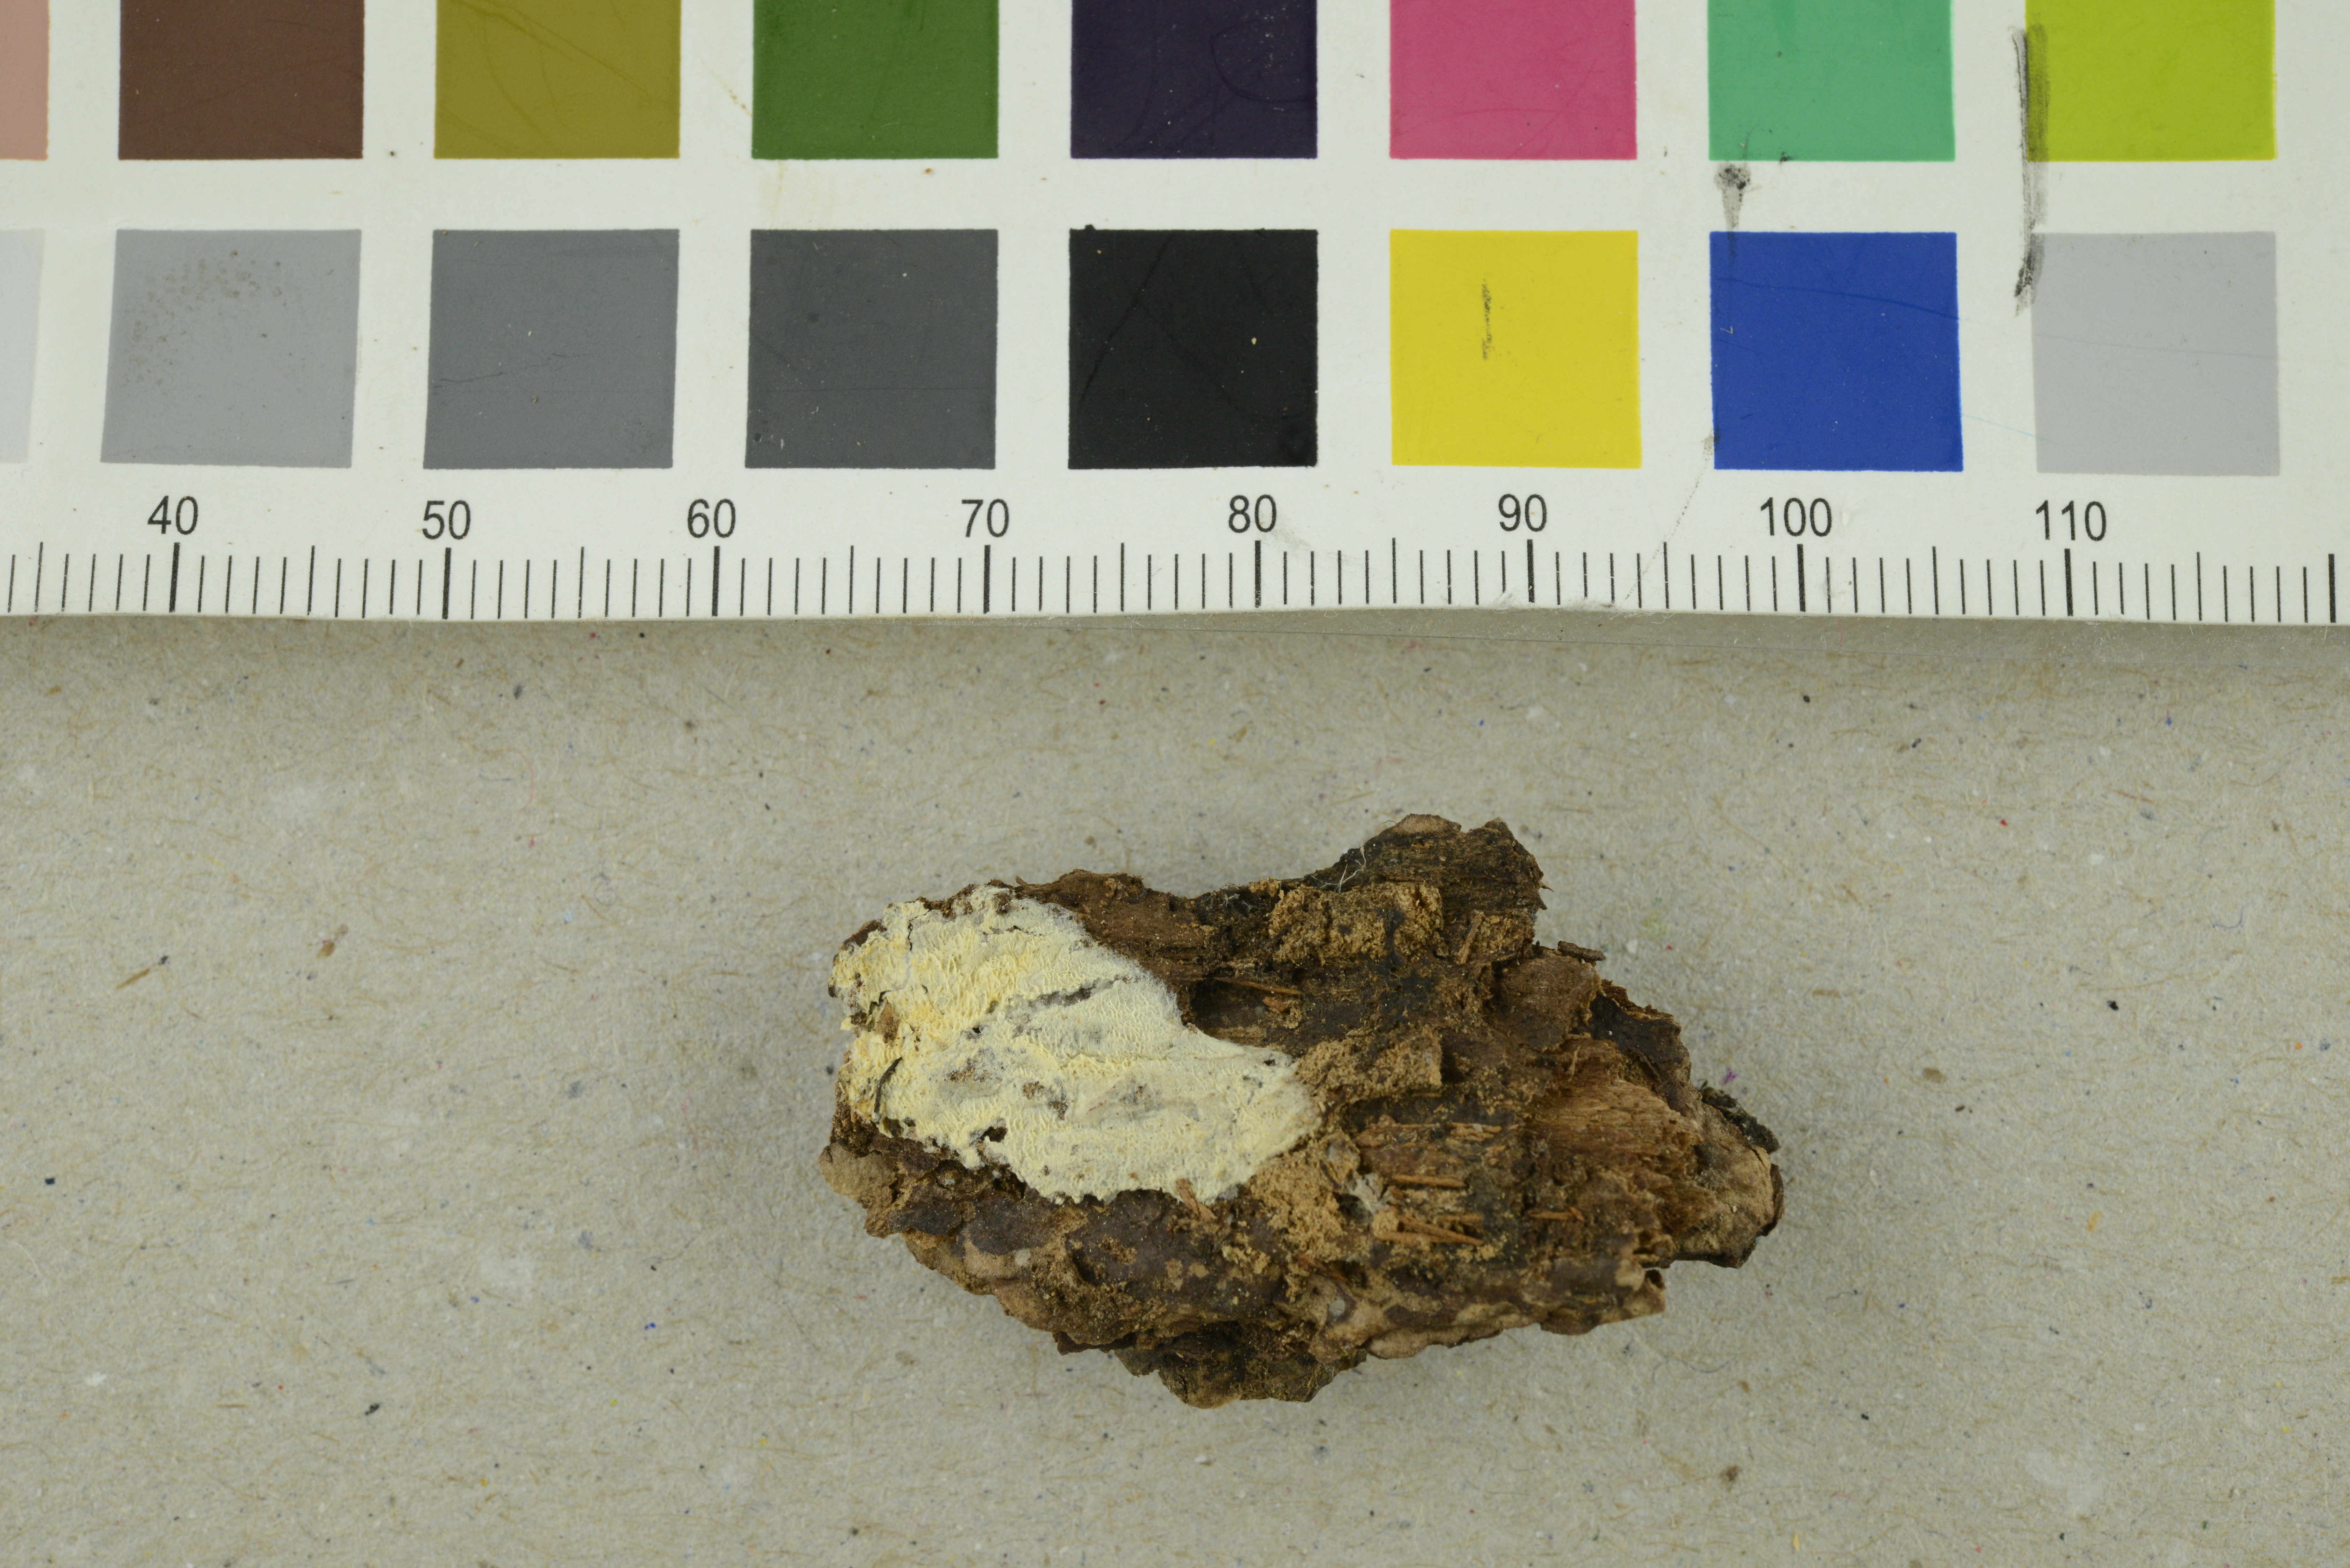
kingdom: Fungi
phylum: Basidiomycota
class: Agaricomycetes
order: Cantharellales
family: Hydnaceae
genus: Sistotrema
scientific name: Sistotrema alboluteum
